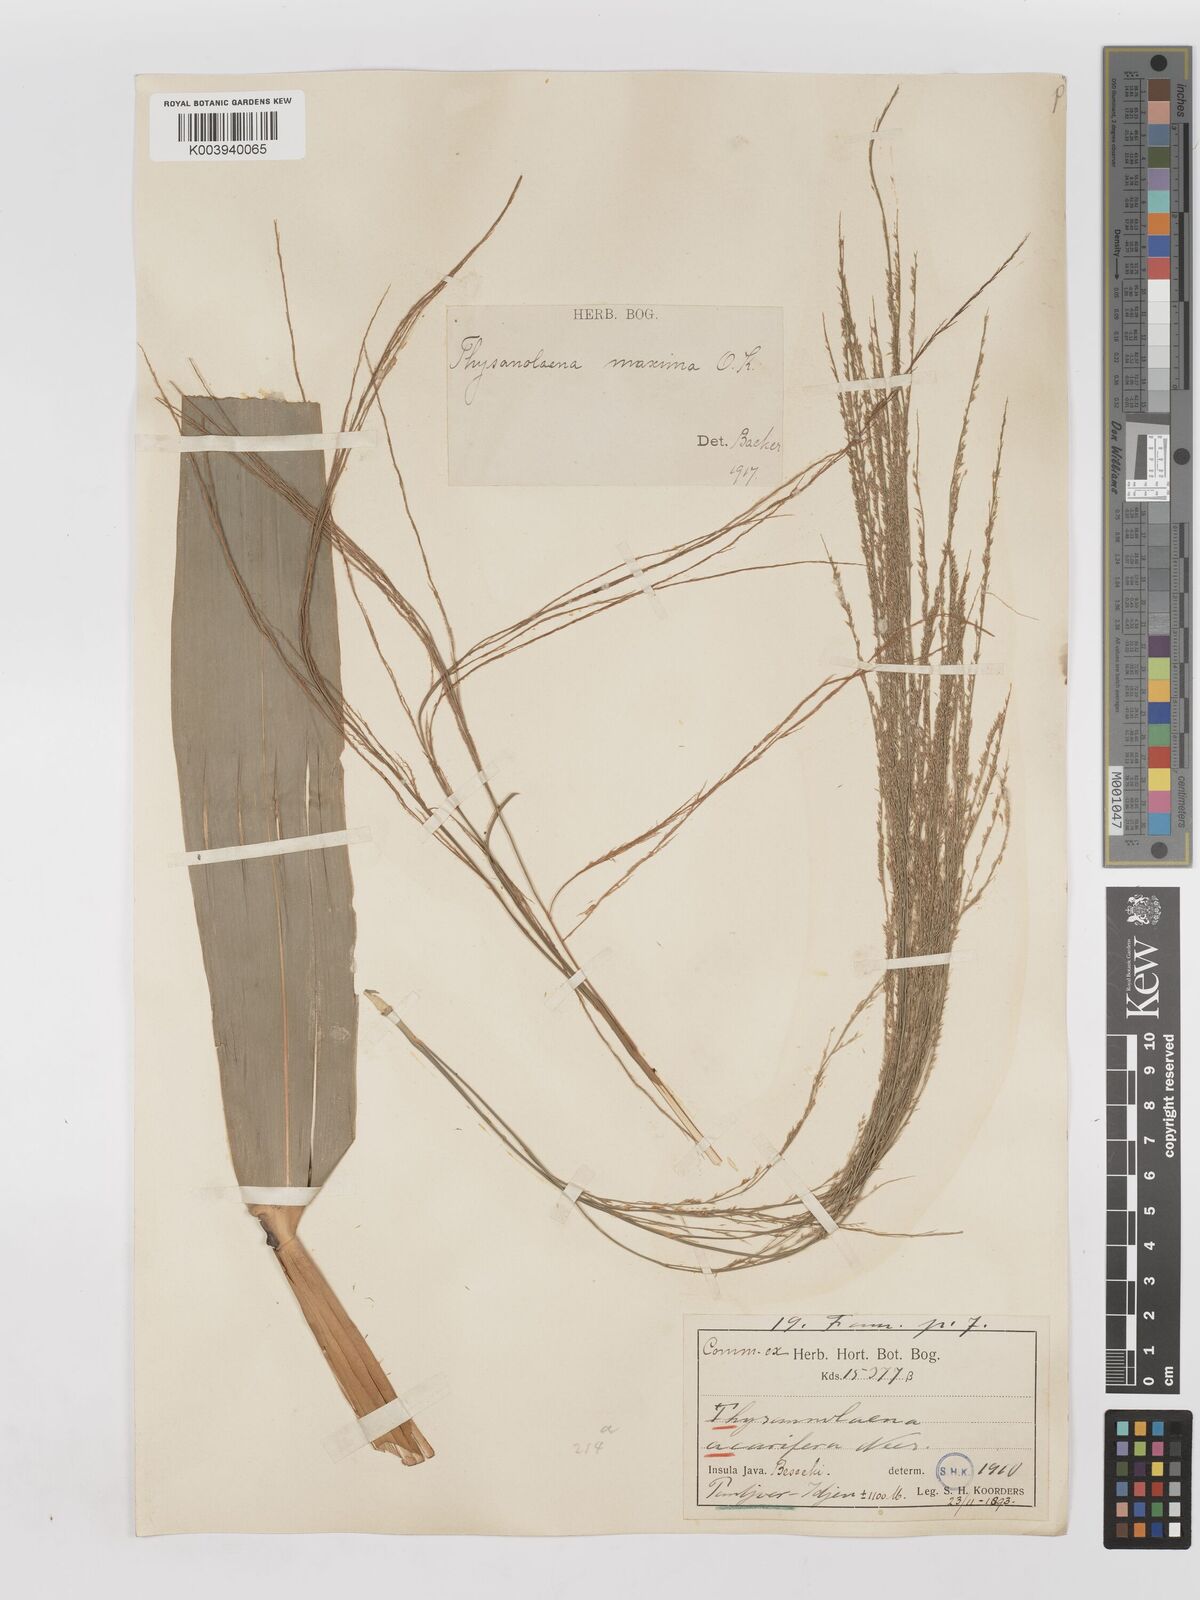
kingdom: Plantae
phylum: Tracheophyta
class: Liliopsida
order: Poales
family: Poaceae
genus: Thysanolaena
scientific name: Thysanolaena latifolia
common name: Tiger grass
